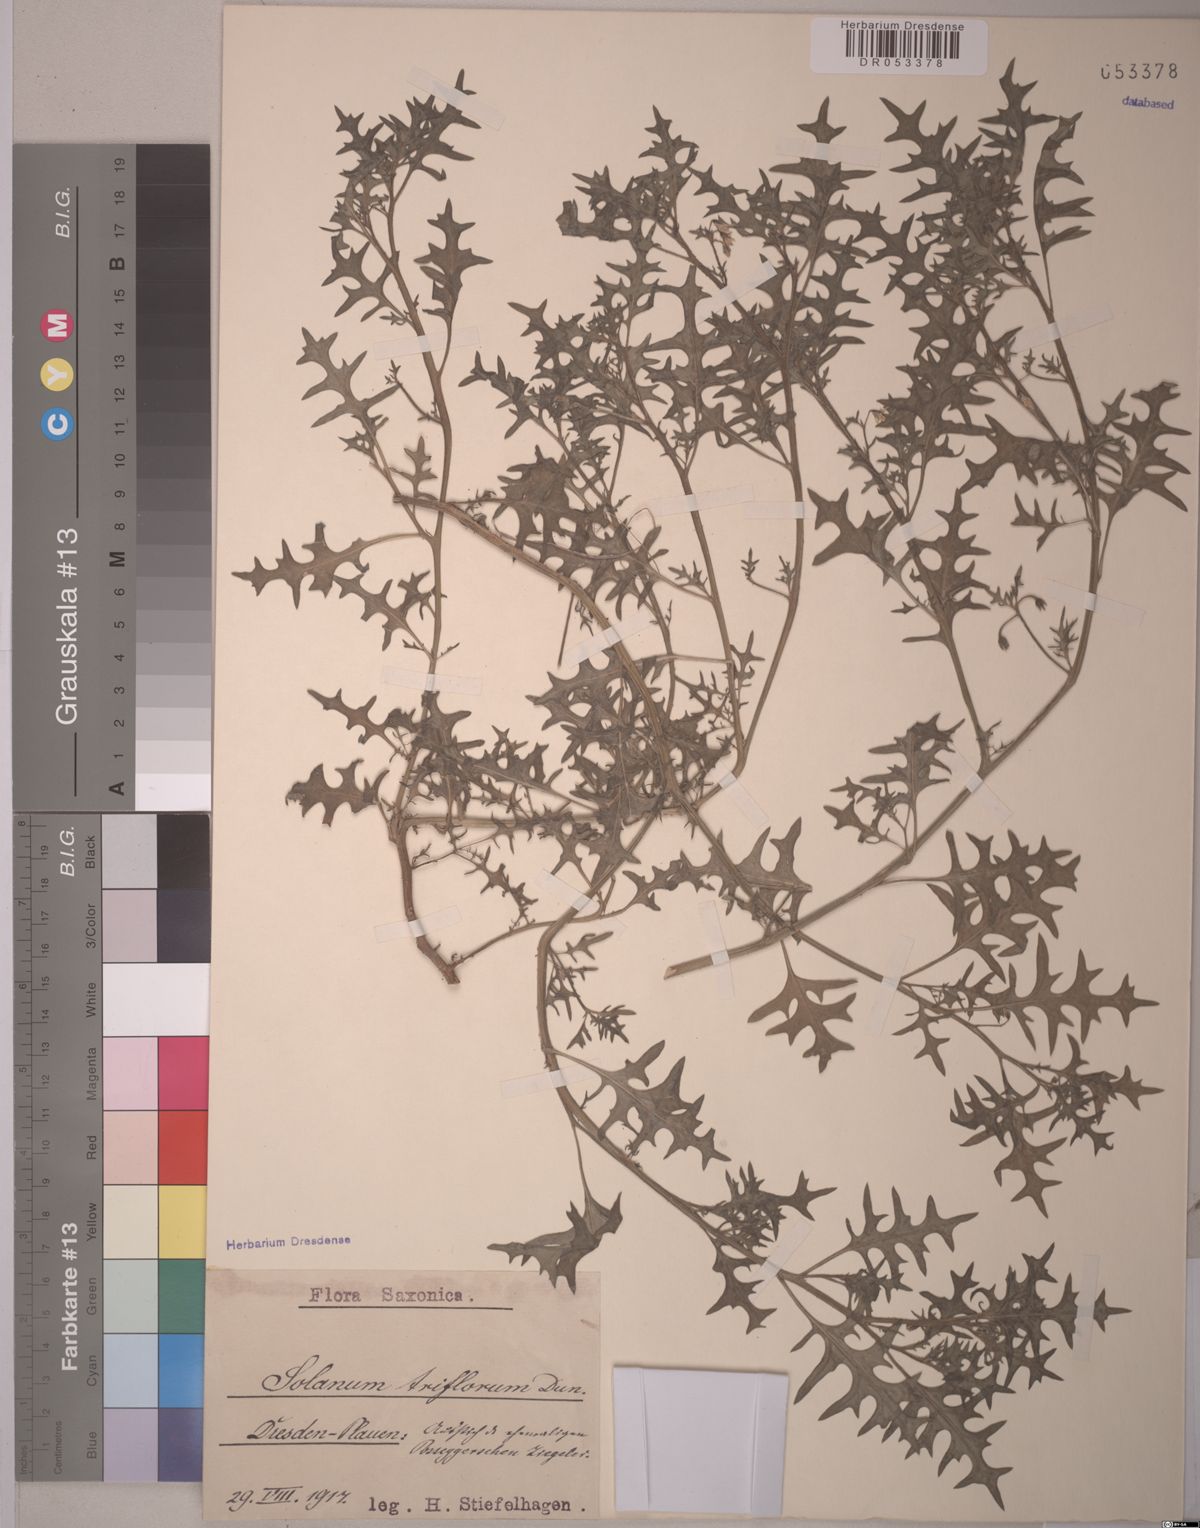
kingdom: Plantae
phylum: Tracheophyta
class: Magnoliopsida
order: Solanales
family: Solanaceae
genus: Solanum
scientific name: Solanum triflorum
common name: Small nightshade
